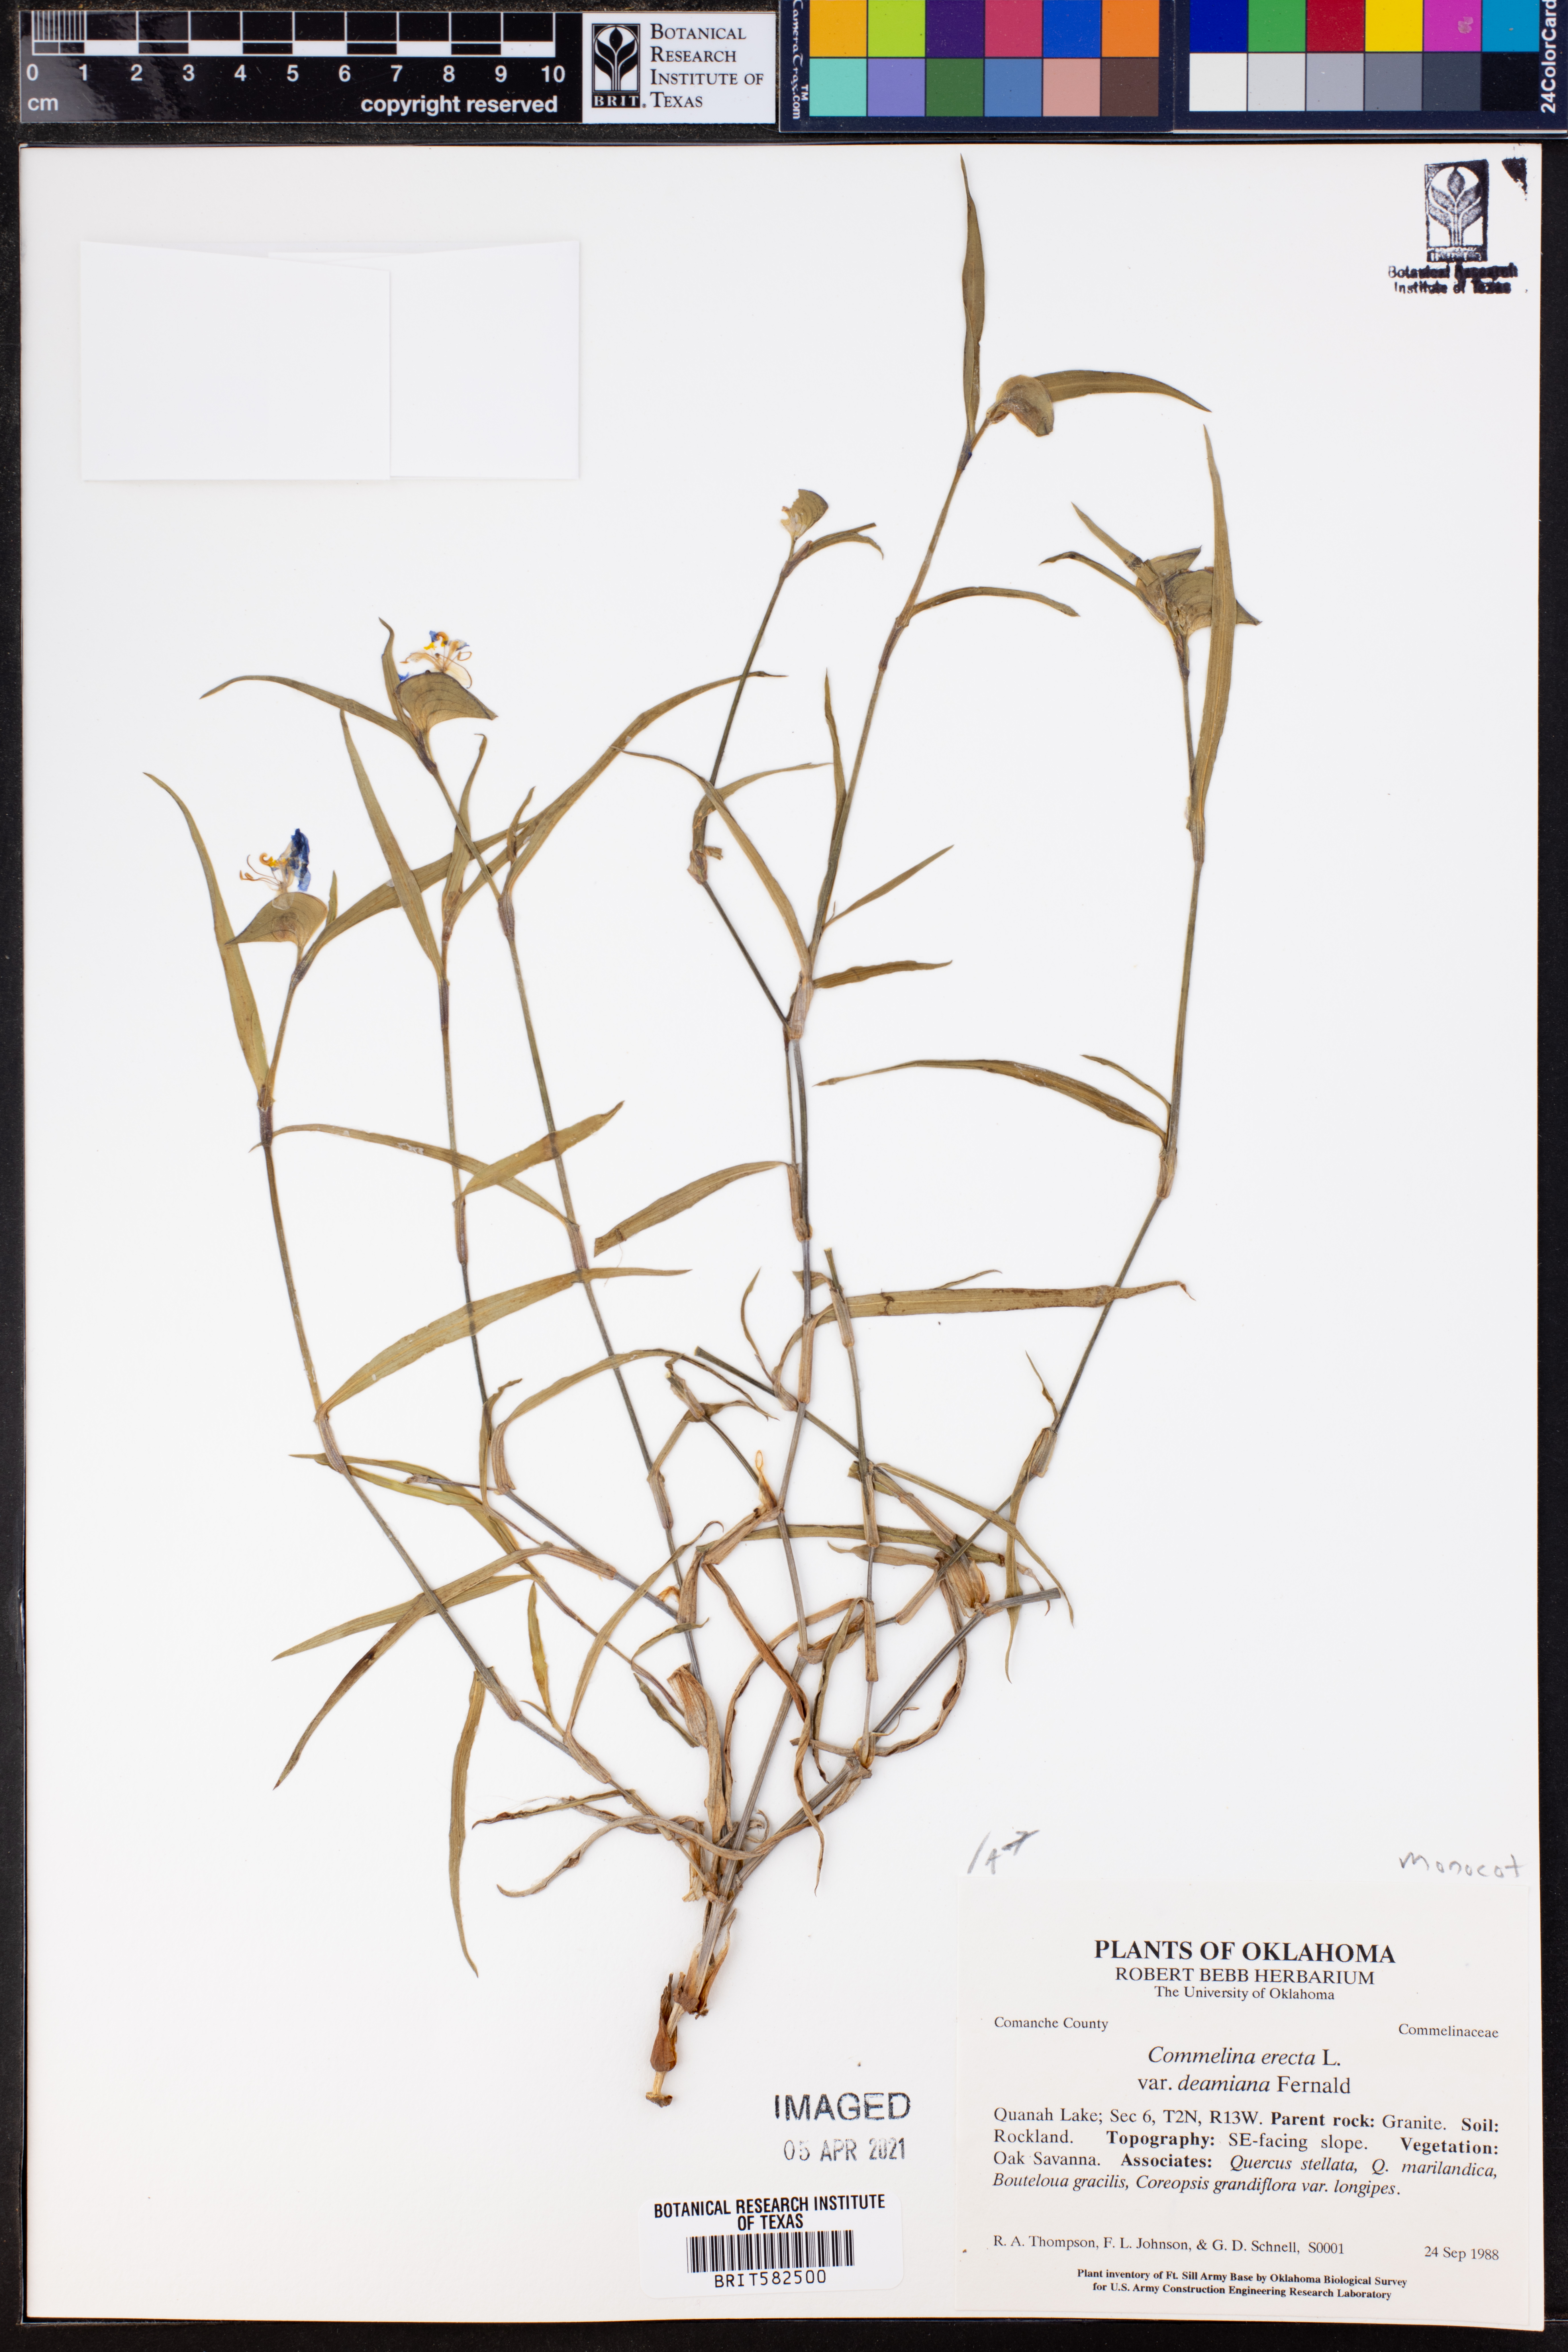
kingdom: Plantae
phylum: Tracheophyta
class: Liliopsida
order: Commelinales
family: Commelinaceae
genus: Commelina
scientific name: Commelina erecta
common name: Blousel blommetjie
